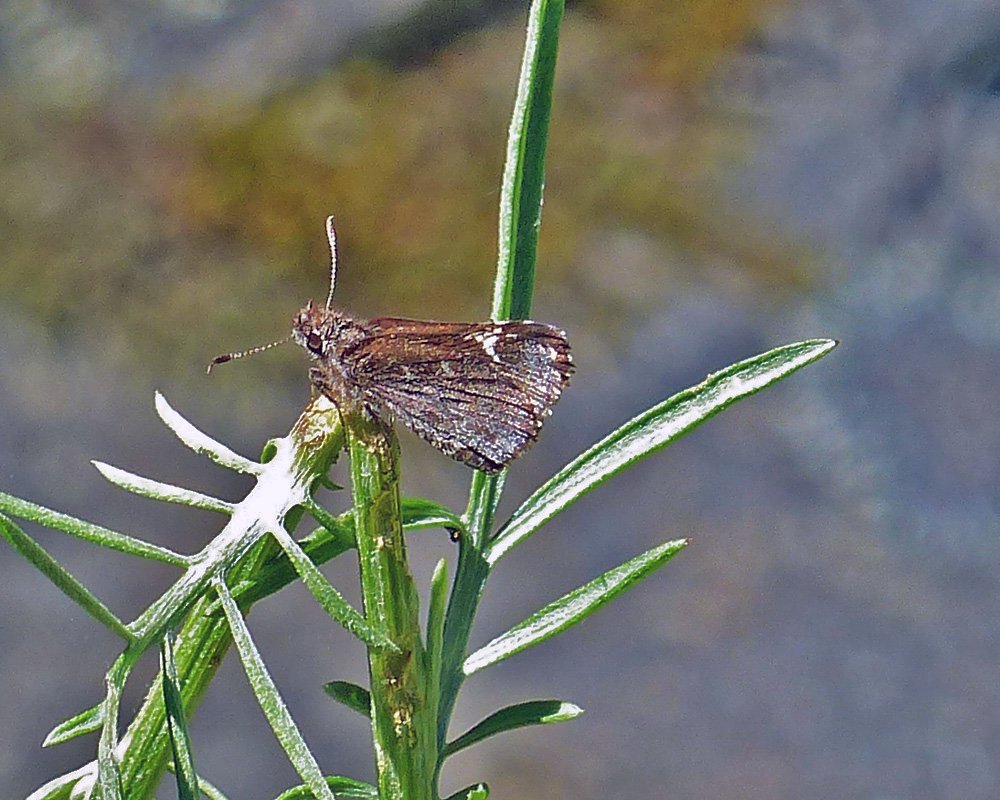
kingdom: Animalia
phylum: Arthropoda
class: Insecta
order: Lepidoptera
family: Hesperiidae
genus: Mastor
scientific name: Mastor vialis
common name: Common Roadside-Skipper
